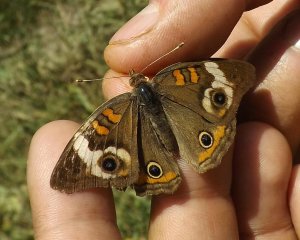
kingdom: Animalia
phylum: Arthropoda
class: Insecta
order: Lepidoptera
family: Nymphalidae
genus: Junonia
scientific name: Junonia coenia
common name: Common Buckeye
